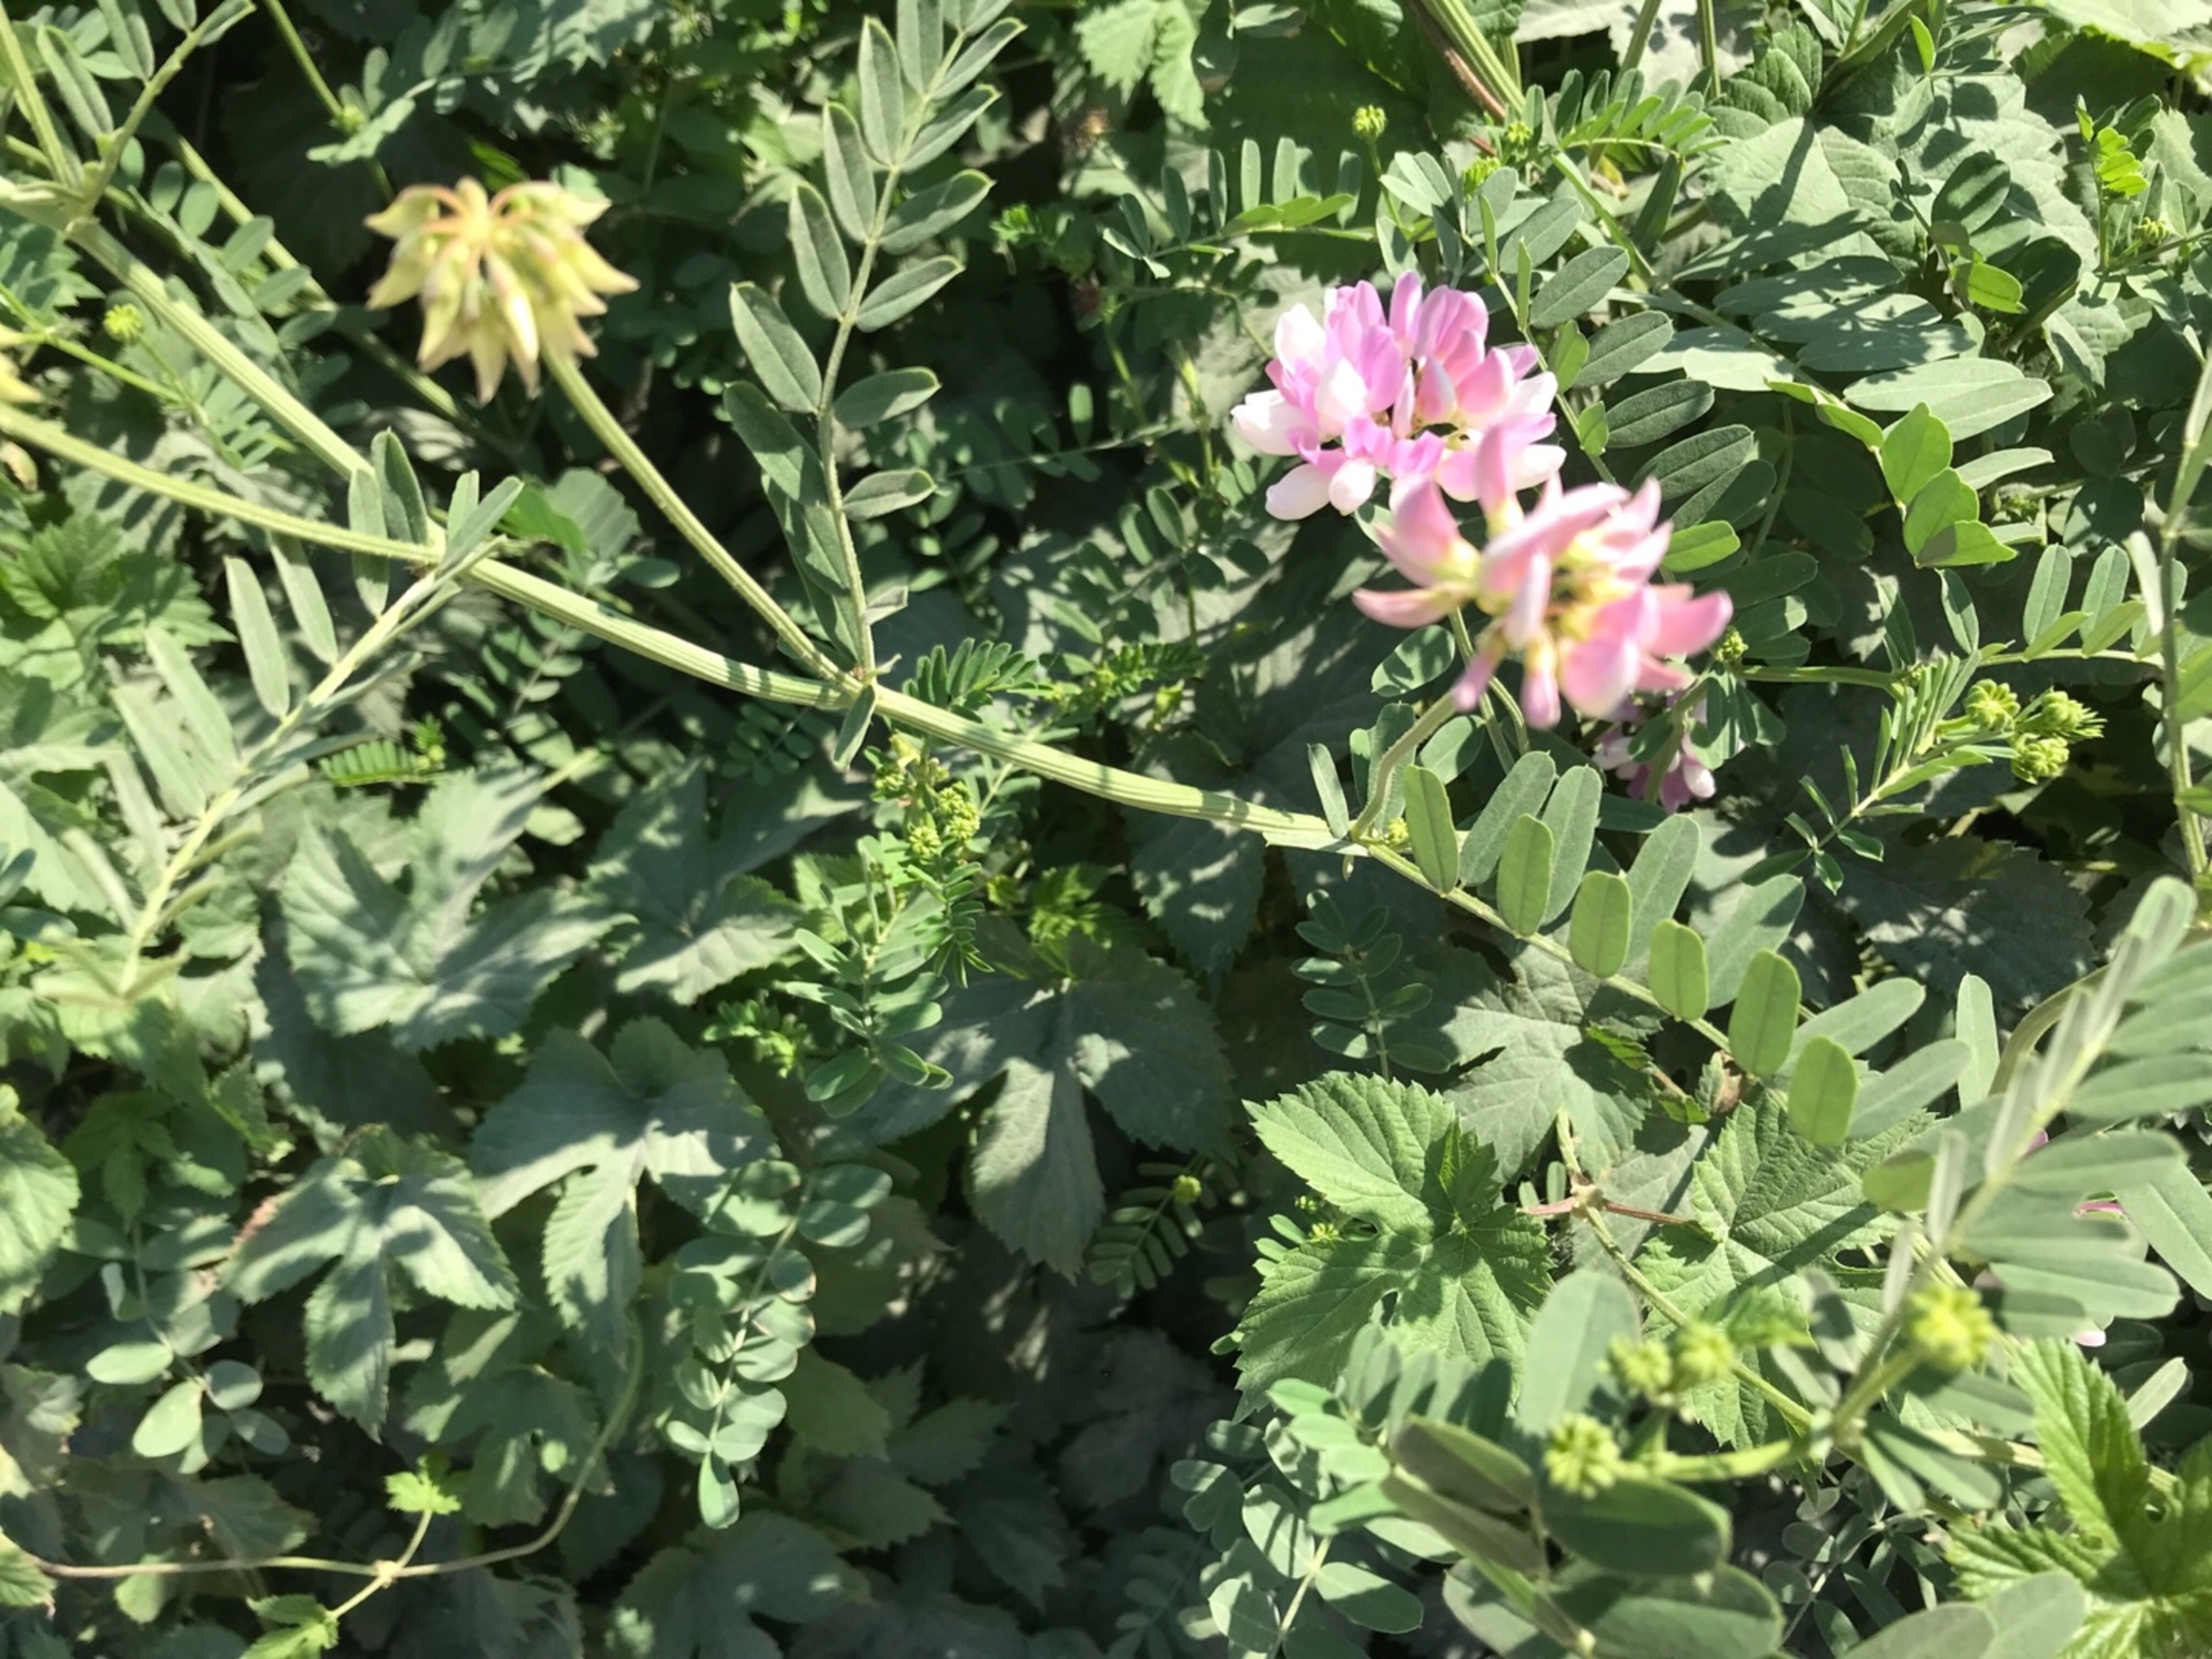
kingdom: Plantae
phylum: Tracheophyta
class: Magnoliopsida
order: Fabales
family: Fabaceae
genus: Coronilla
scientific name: Coronilla varia
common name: Giftig kronvikke
